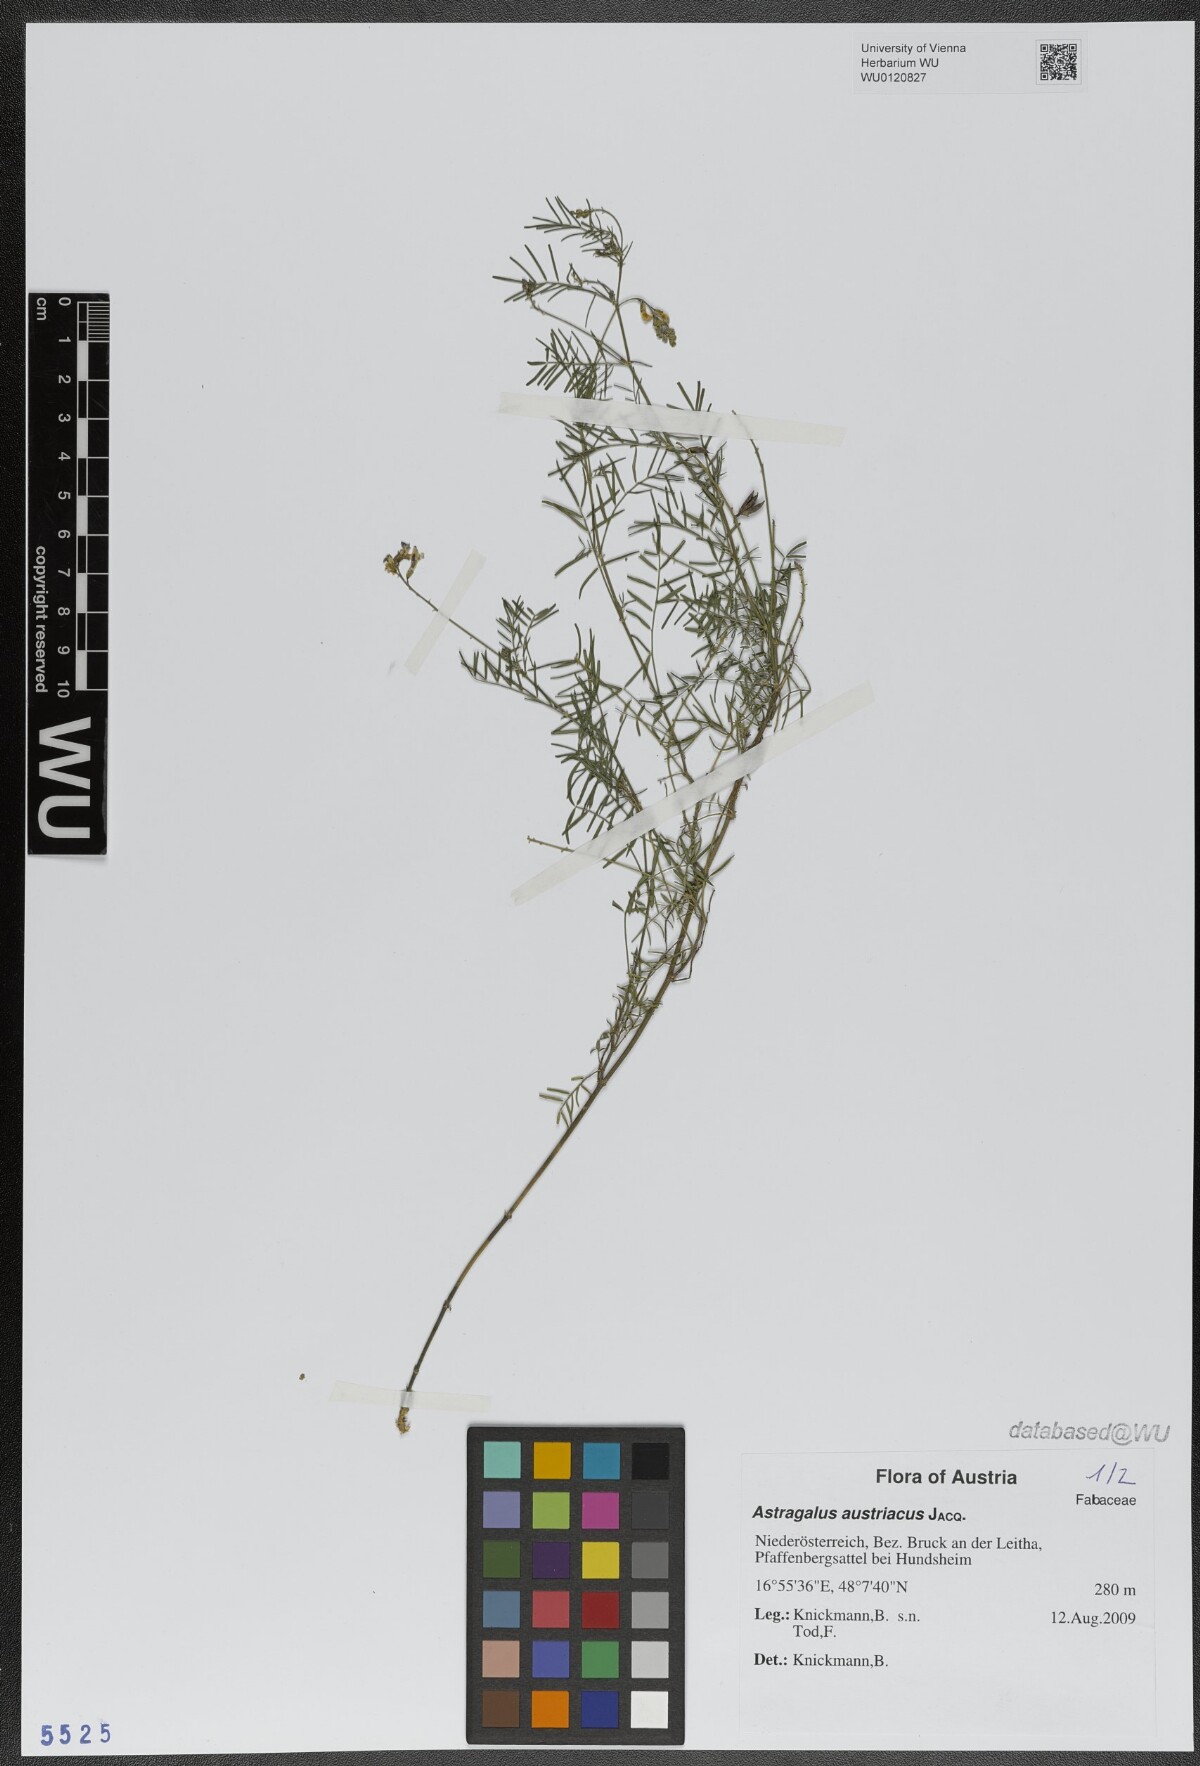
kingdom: Plantae
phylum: Tracheophyta
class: Magnoliopsida
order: Fabales
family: Fabaceae
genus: Astragalus
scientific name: Astragalus austriacus
